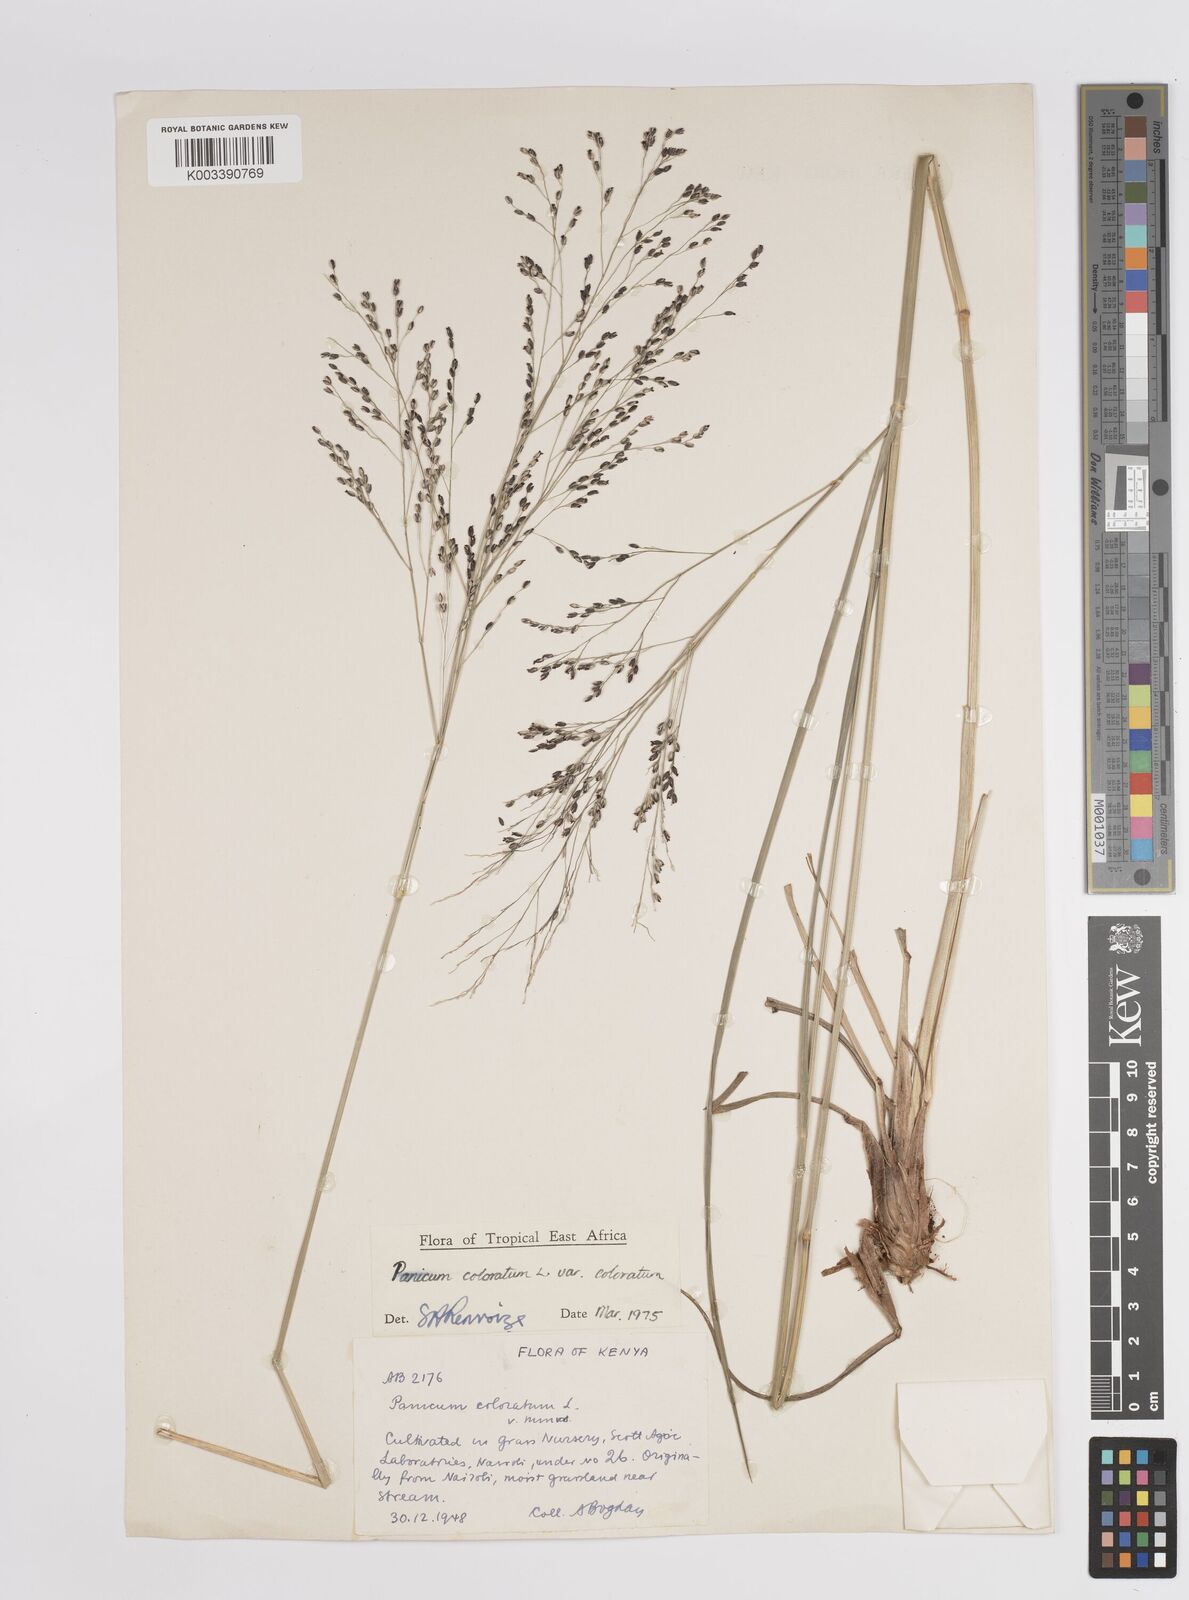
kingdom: Plantae
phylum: Tracheophyta
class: Liliopsida
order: Poales
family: Poaceae
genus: Panicum
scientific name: Panicum coloratum
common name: Kleingrass
